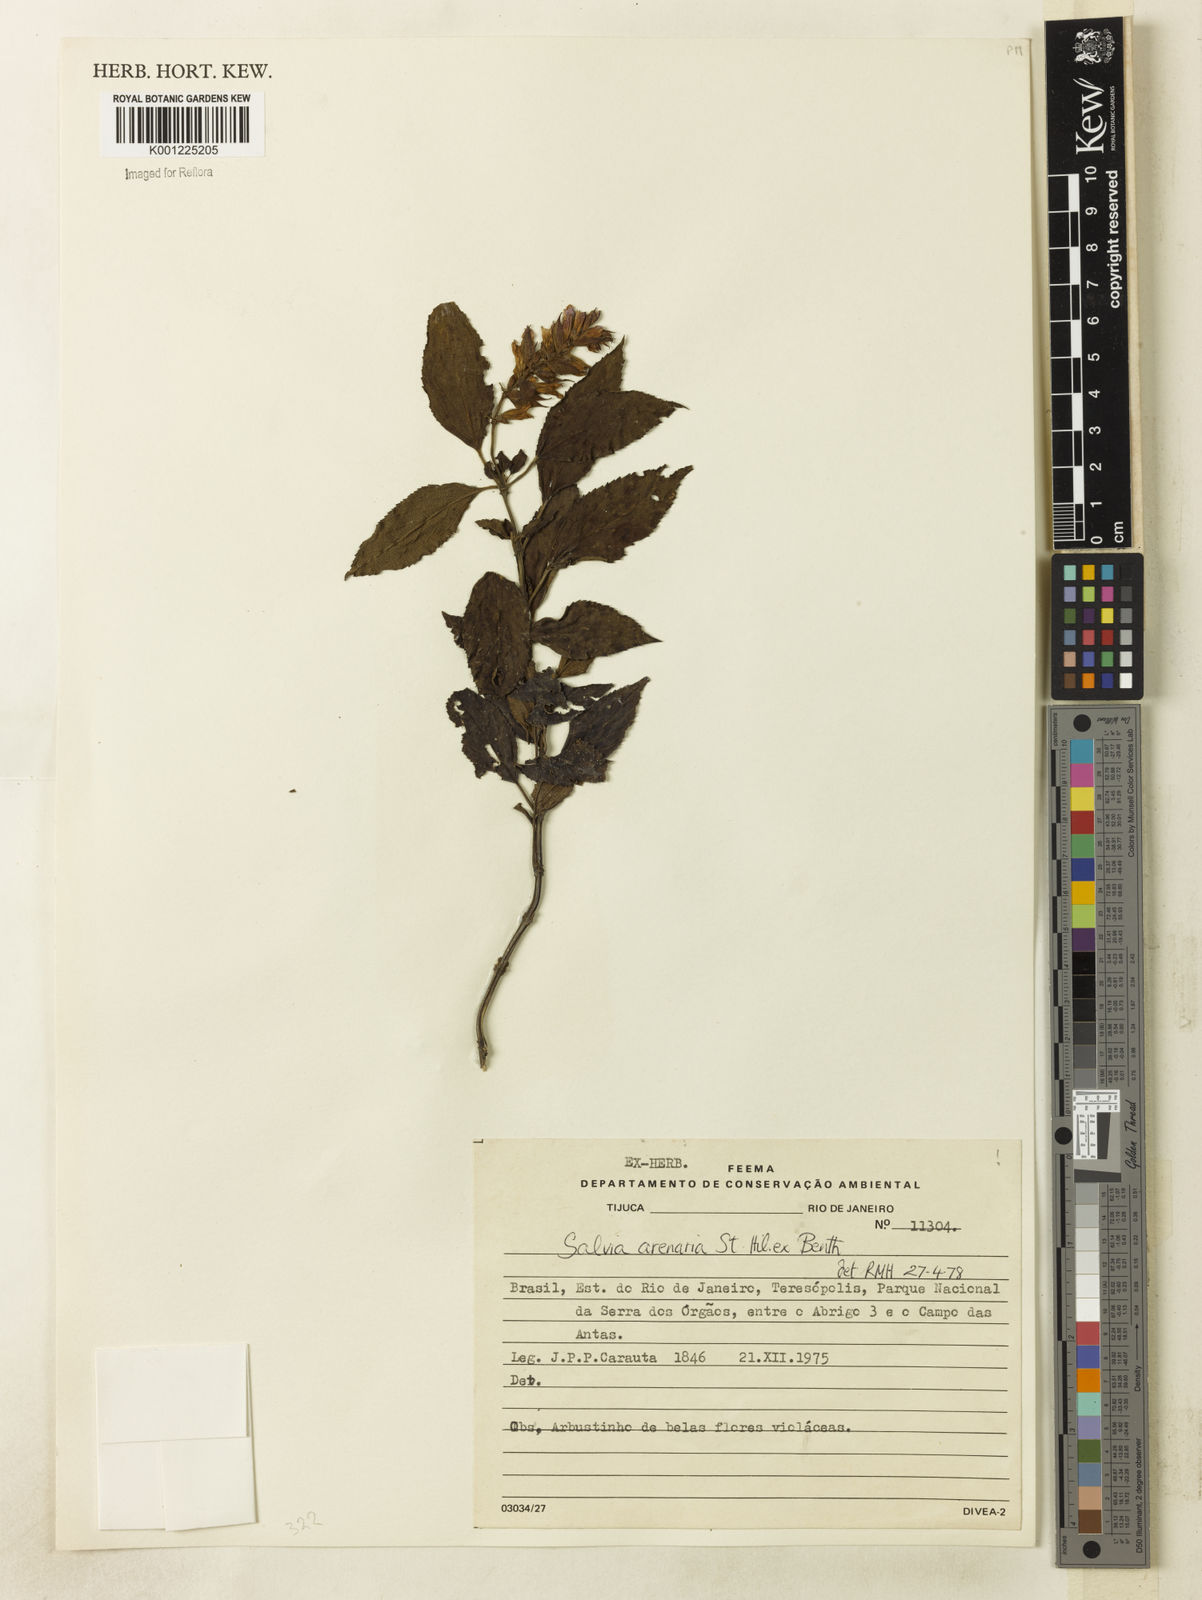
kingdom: Plantae
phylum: Tracheophyta
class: Magnoliopsida
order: Lamiales
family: Lamiaceae
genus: Salvia
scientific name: Salvia arenaria
